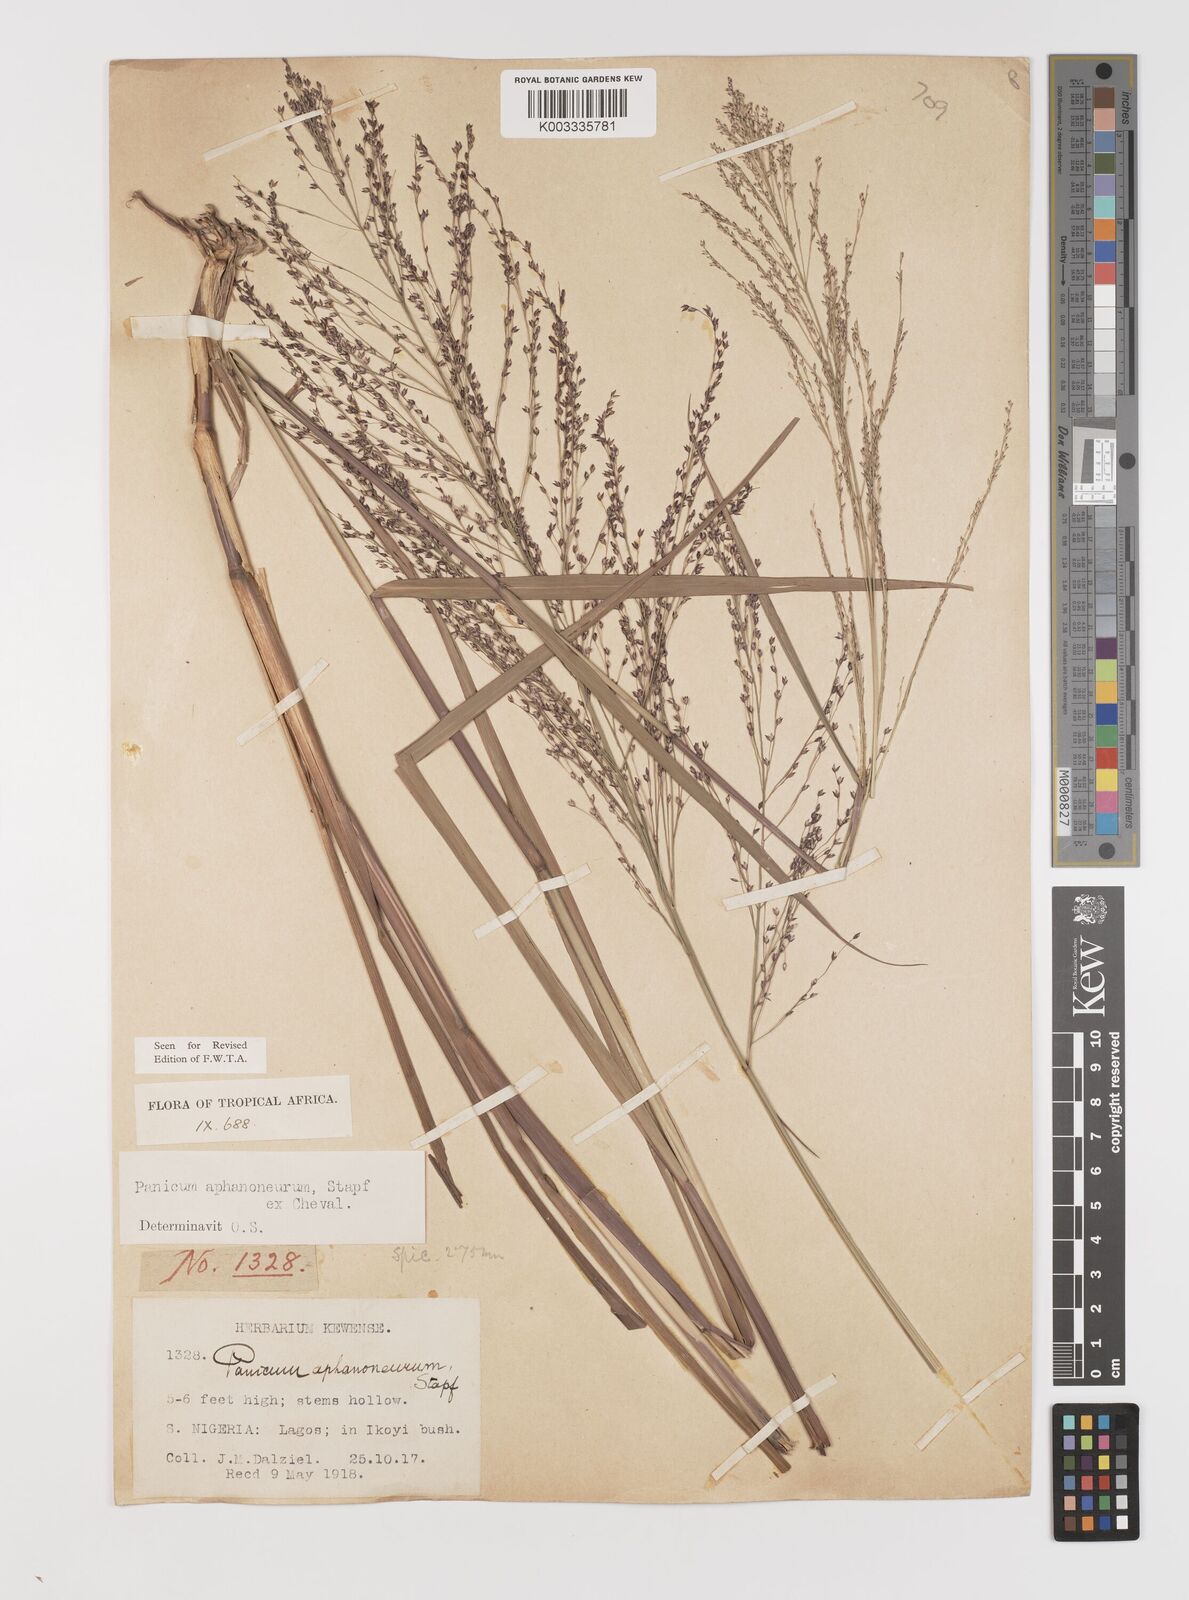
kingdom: Plantae
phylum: Tracheophyta
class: Liliopsida
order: Poales
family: Poaceae
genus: Panicum
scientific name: Panicum fluviicola
